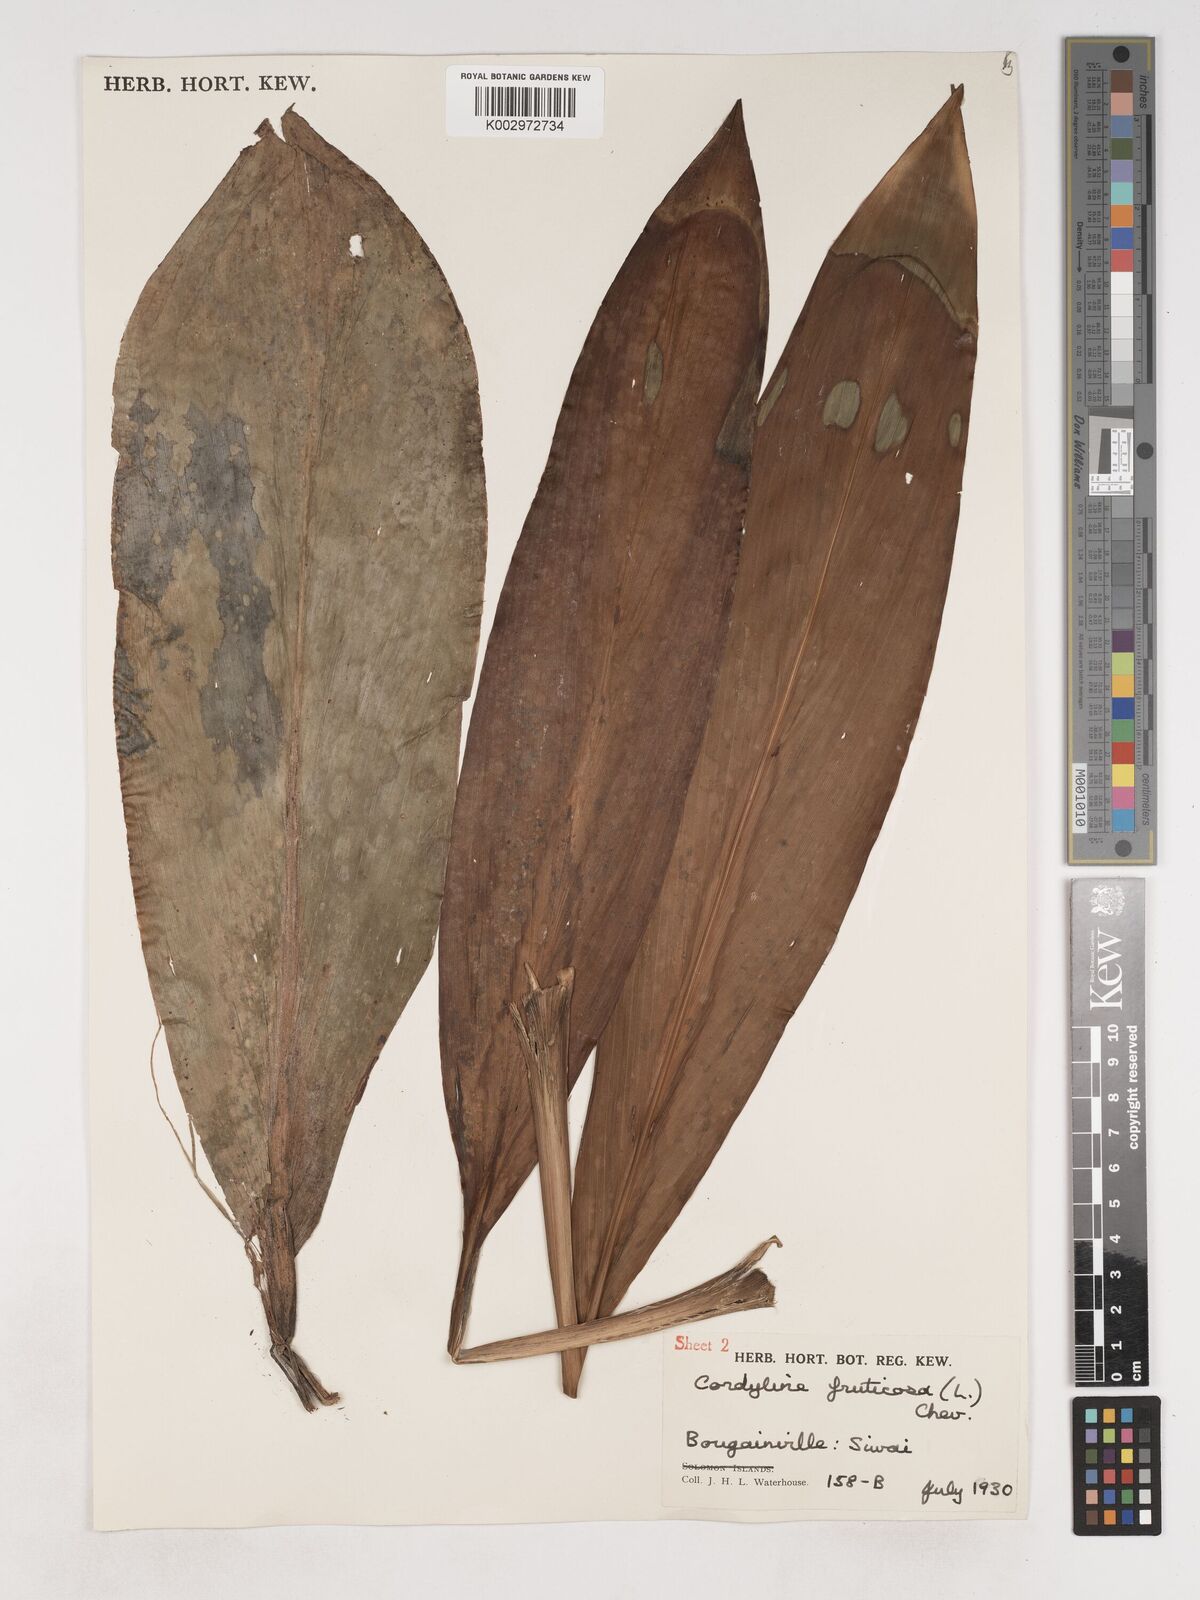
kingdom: Plantae
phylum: Tracheophyta
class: Liliopsida
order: Asparagales
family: Asparagaceae
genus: Cordyline
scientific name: Cordyline fruticosa
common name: Good-luck-plant
